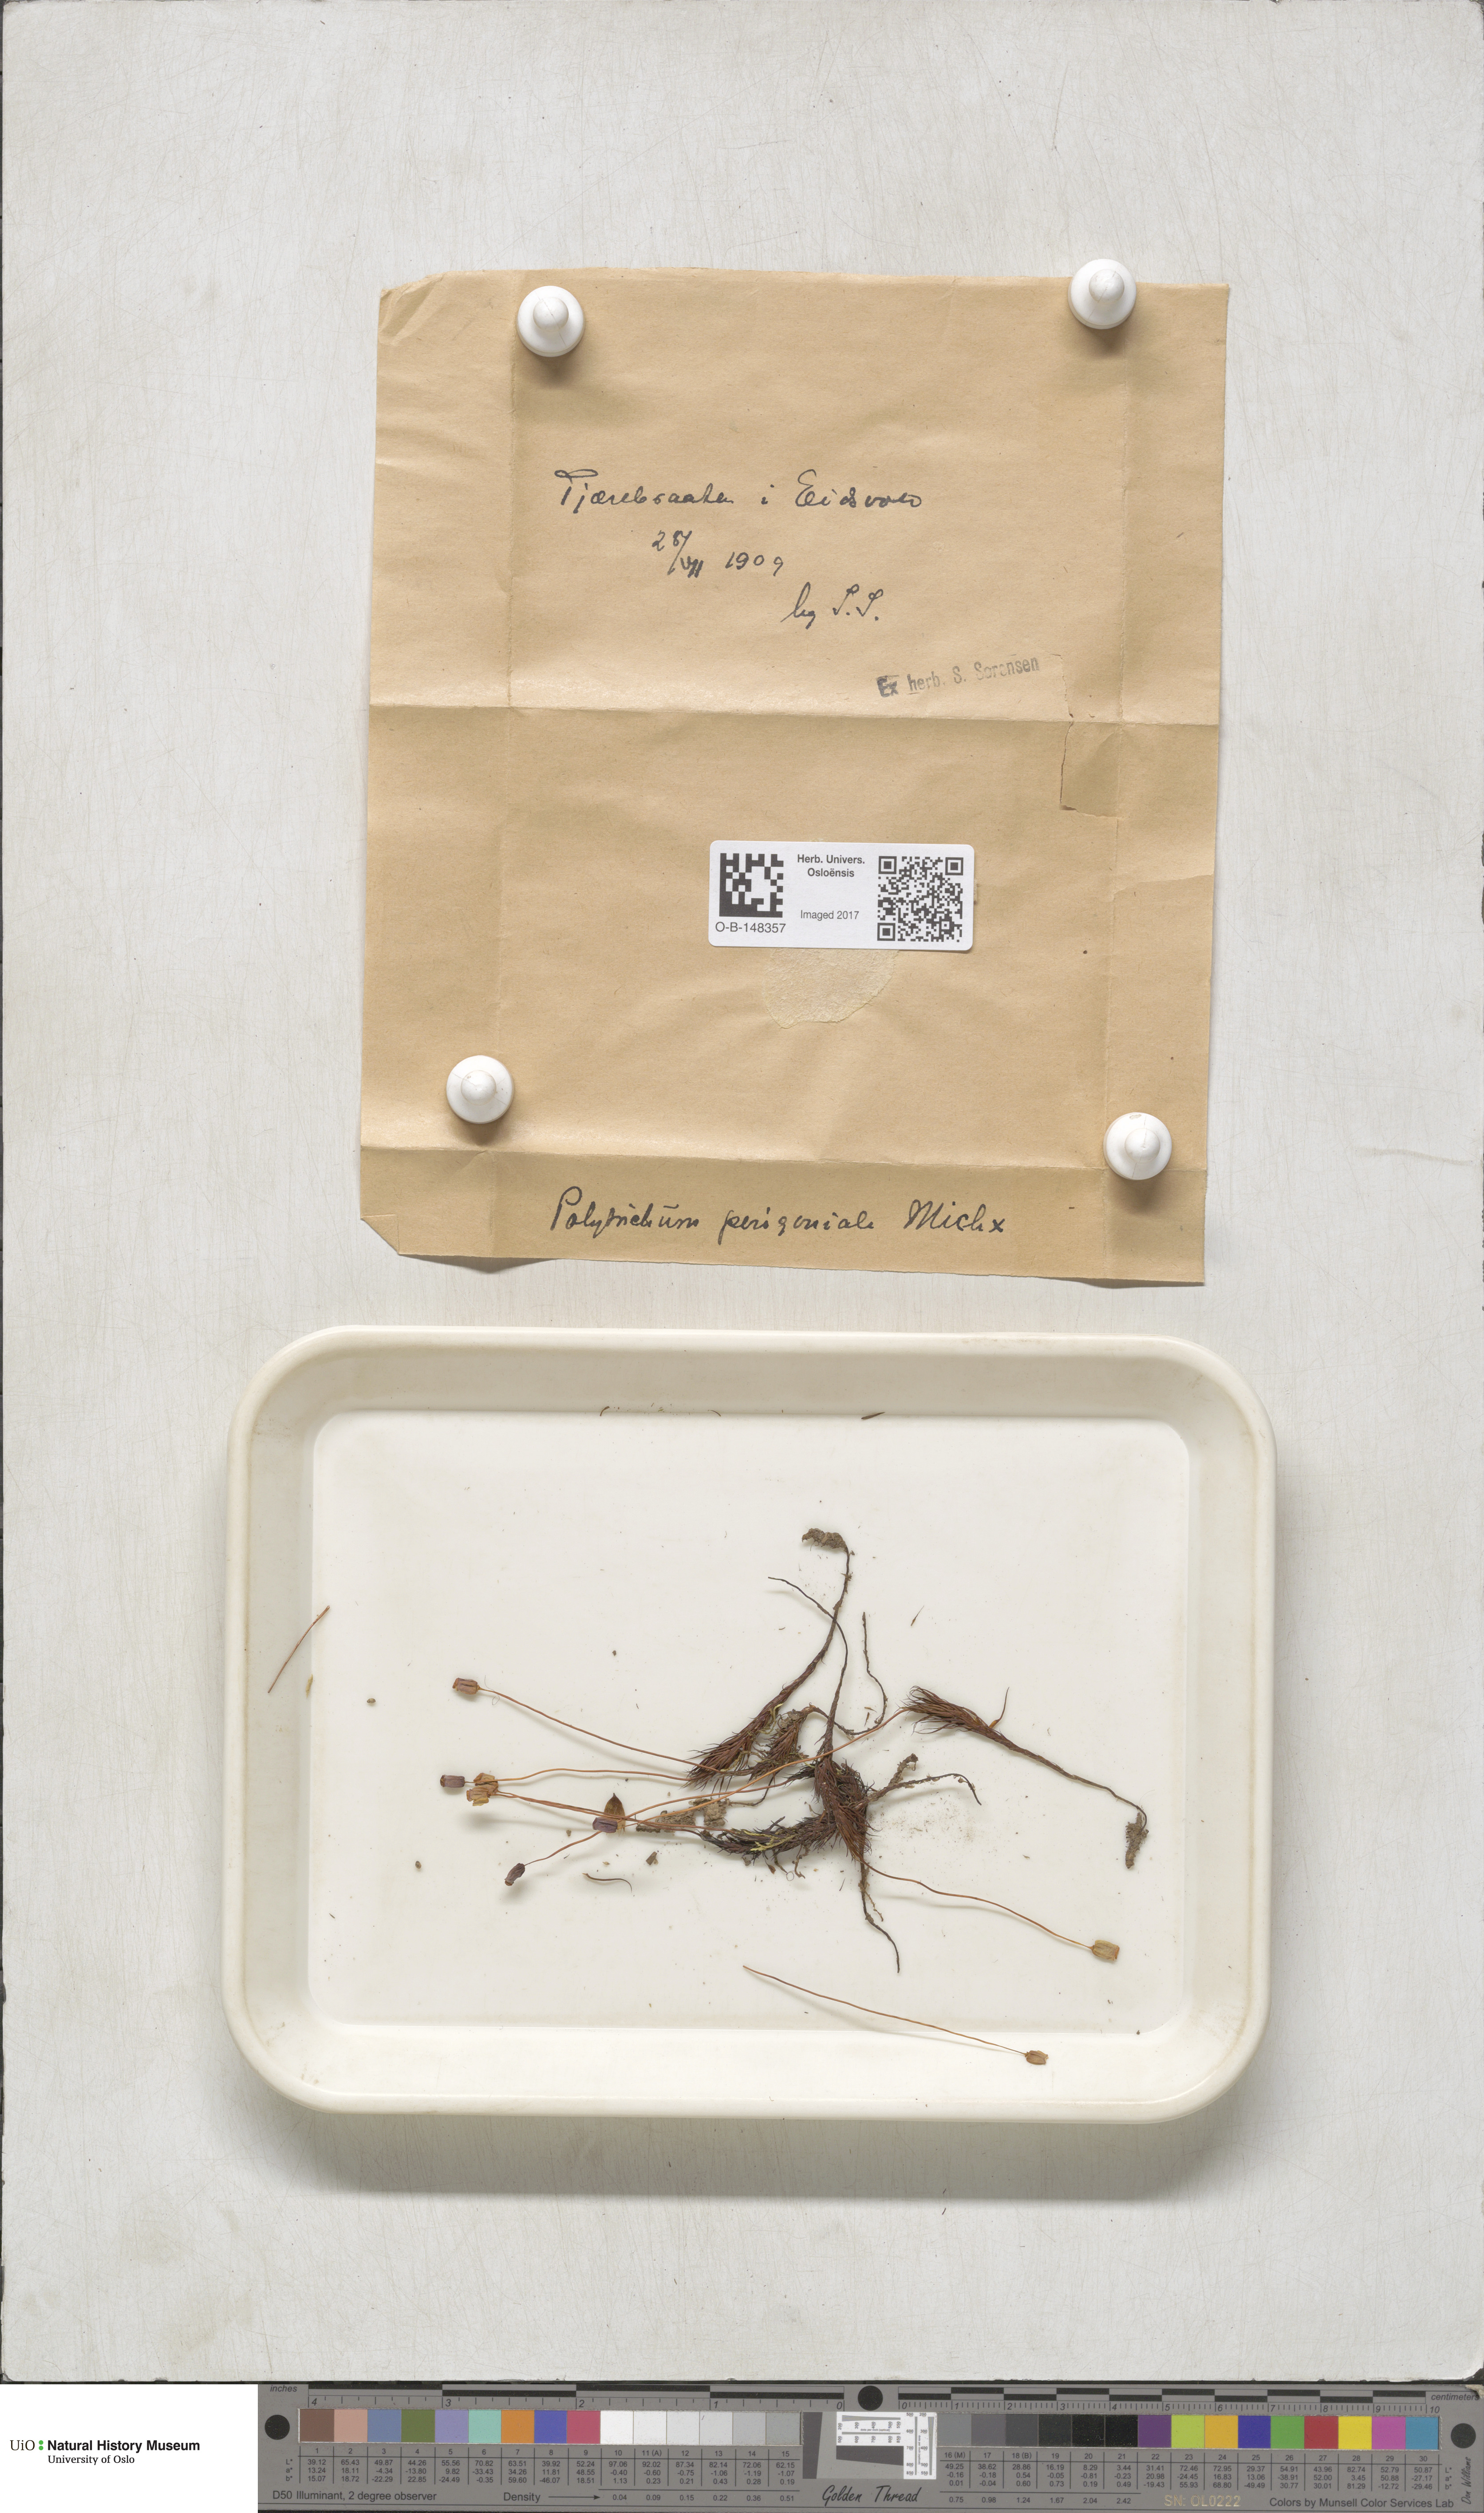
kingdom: Plantae
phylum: Bryophyta
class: Polytrichopsida
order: Polytrichales
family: Polytrichaceae
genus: Polytrichum
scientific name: Polytrichum commune
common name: Common haircap
